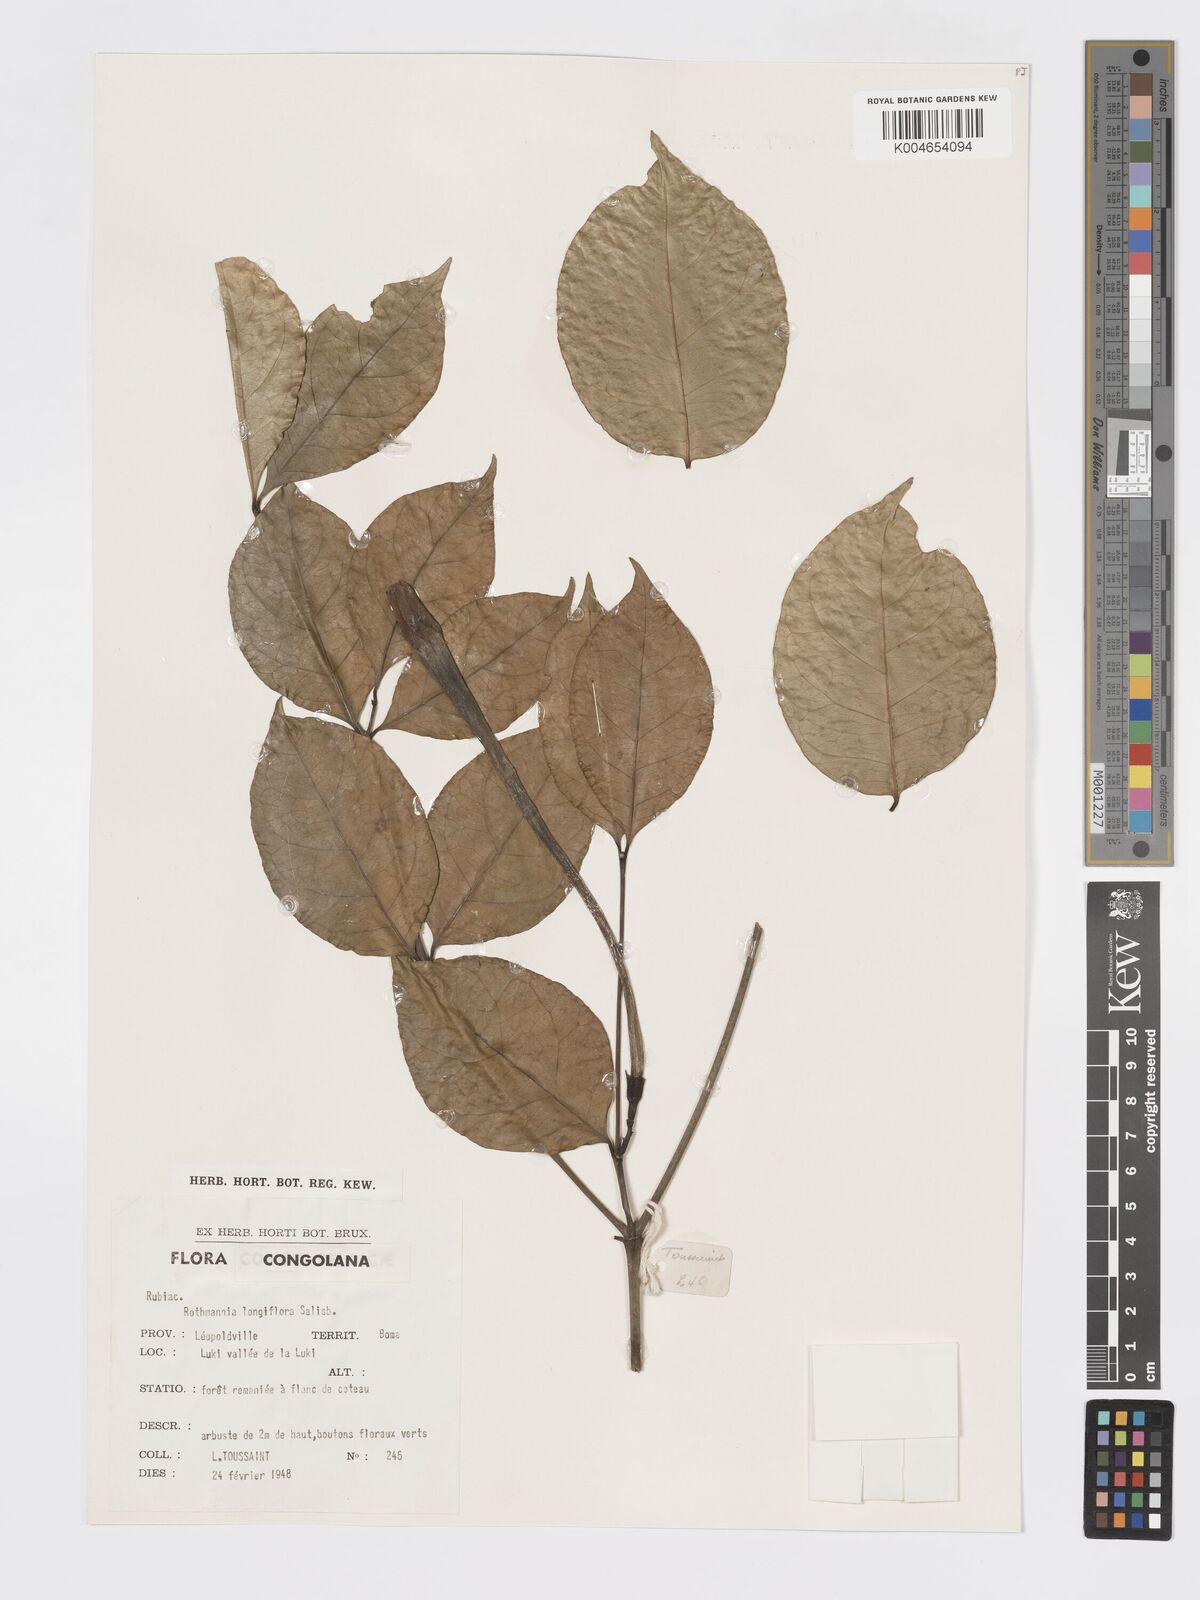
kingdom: Plantae
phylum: Tracheophyta
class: Magnoliopsida
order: Gentianales
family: Rubiaceae
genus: Rothmannia
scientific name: Rothmannia longiflora
